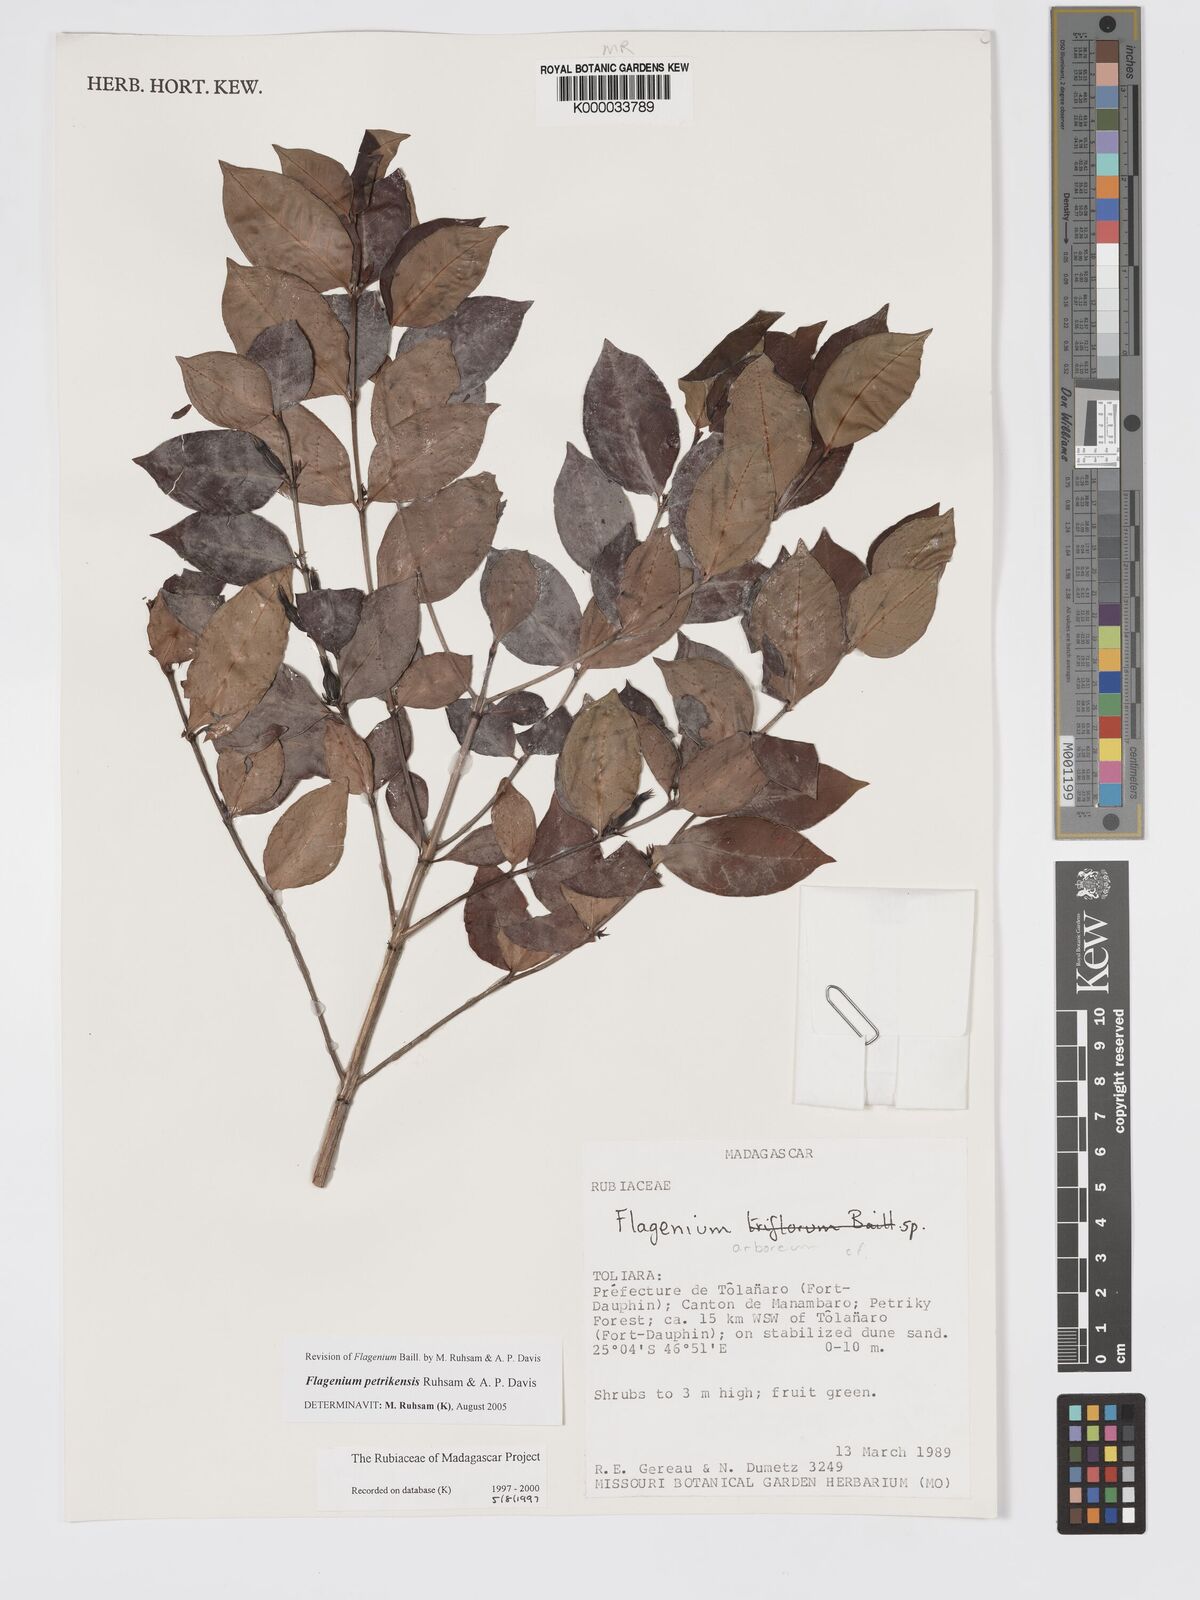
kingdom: Plantae
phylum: Tracheophyta
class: Magnoliopsida
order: Gentianales
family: Rubiaceae
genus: Flagenium
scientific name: Flagenium
